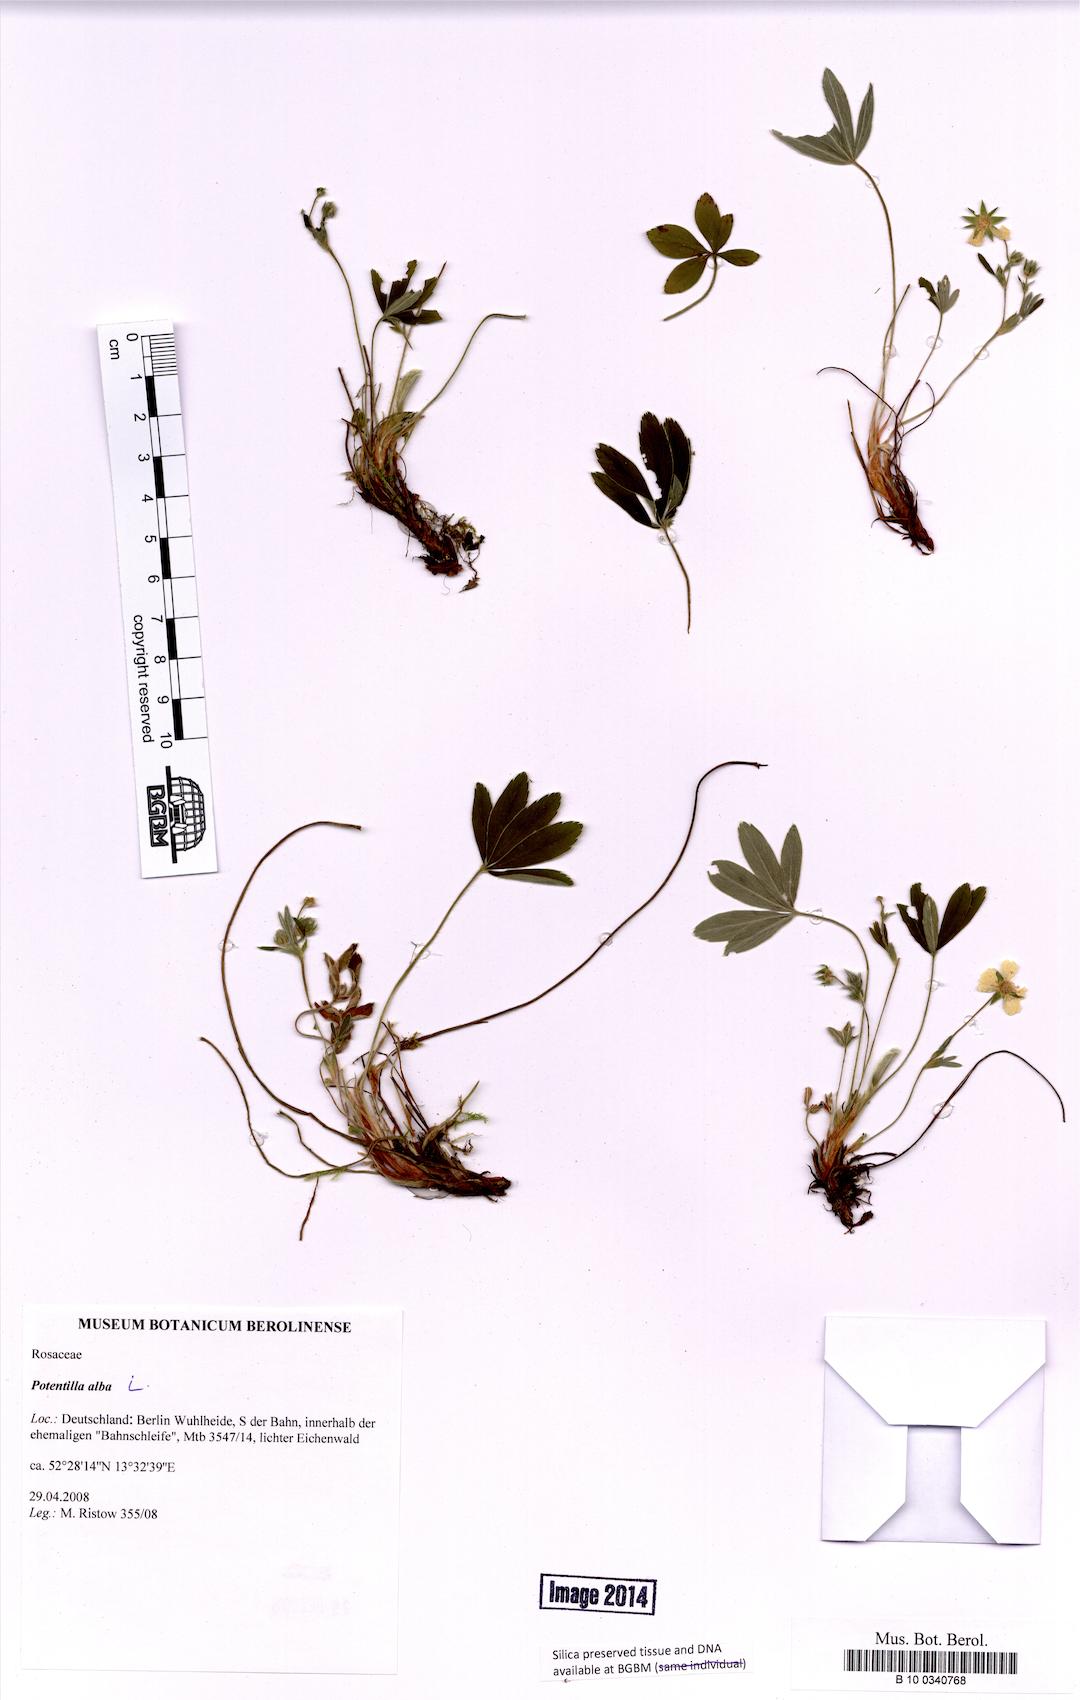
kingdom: Plantae
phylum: Tracheophyta
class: Magnoliopsida
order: Rosales
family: Rosaceae
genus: Potentilla
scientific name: Potentilla alba
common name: White cinquefoil
